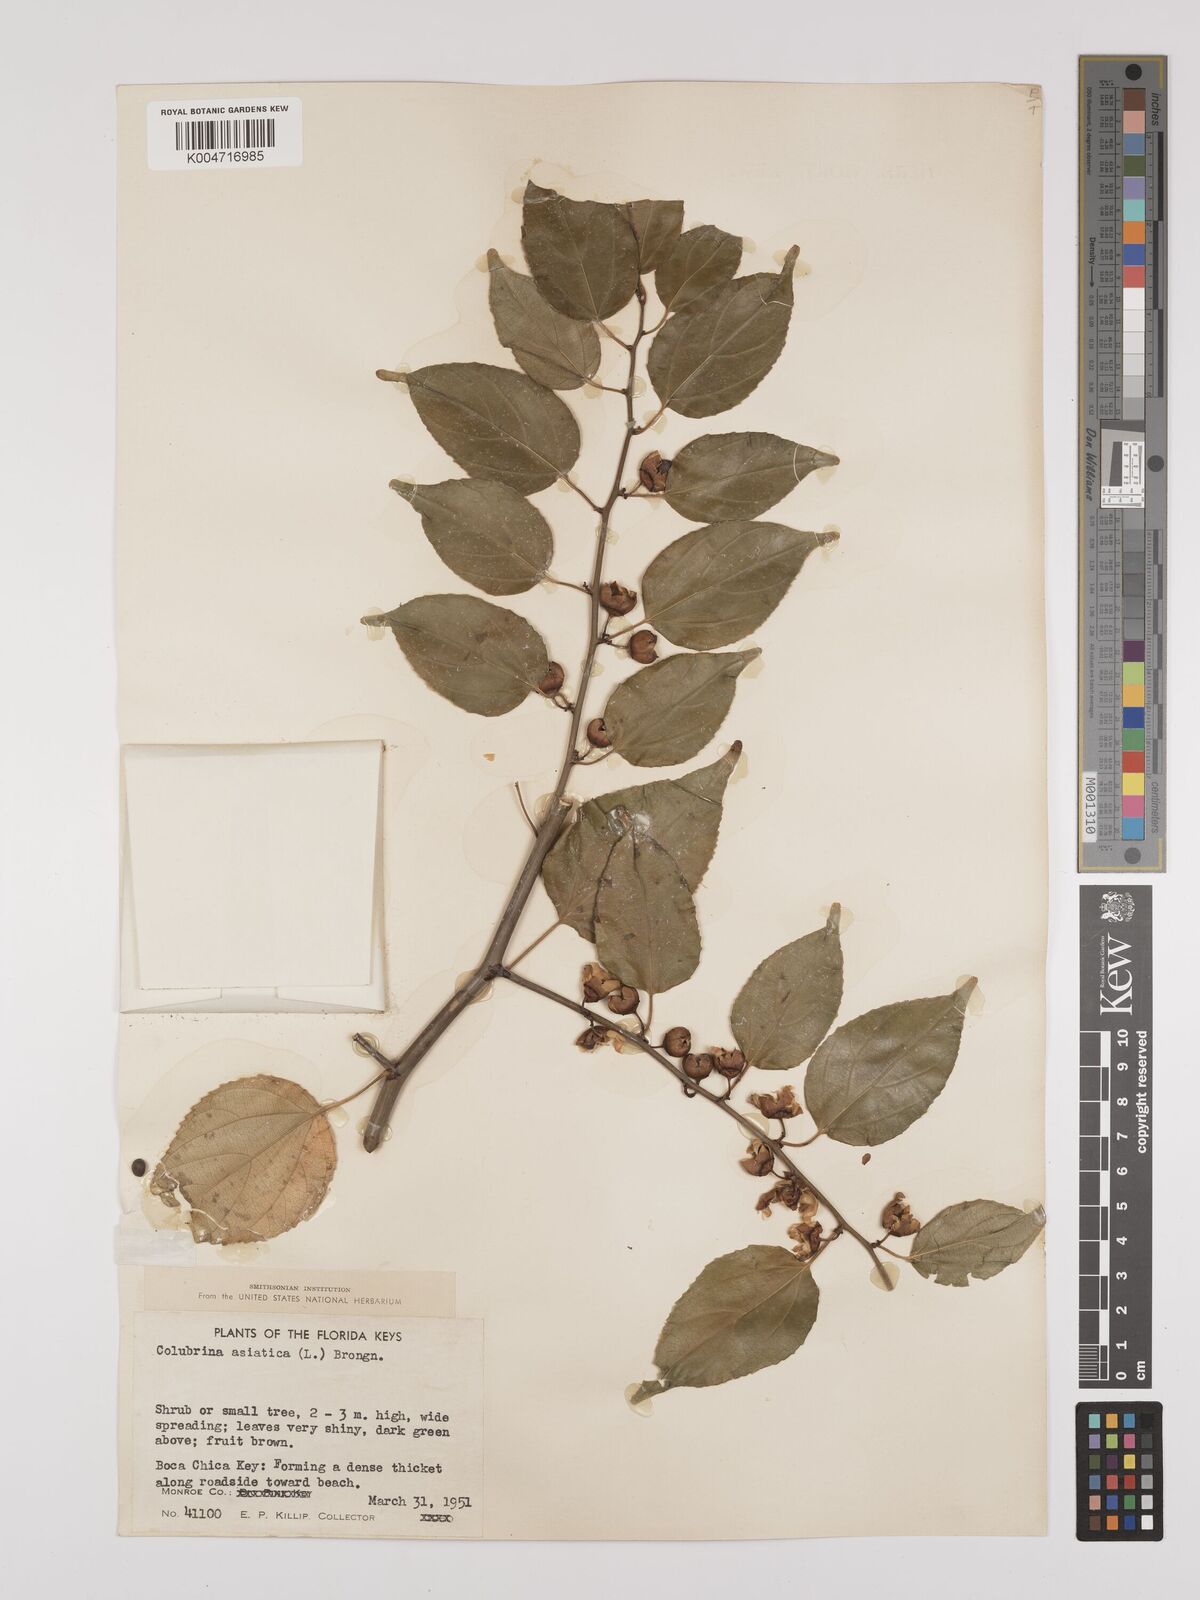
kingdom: Plantae
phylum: Tracheophyta
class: Magnoliopsida
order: Rosales
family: Rhamnaceae
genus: Colubrina
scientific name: Colubrina asiatica
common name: Asian nakedwood
